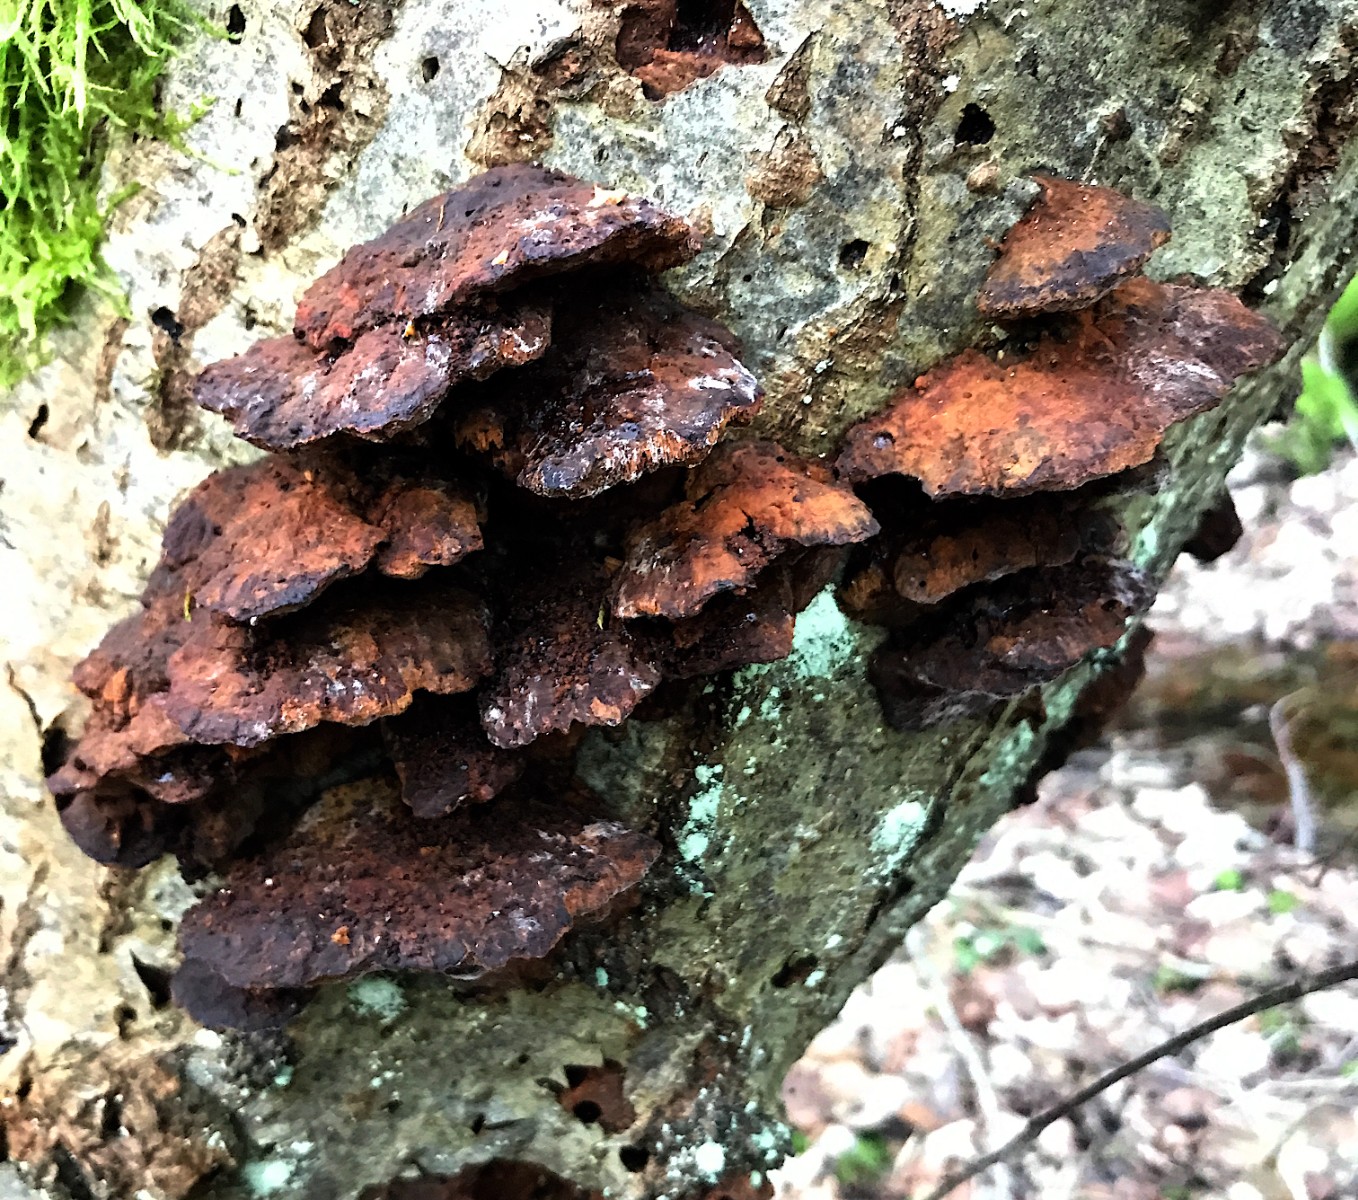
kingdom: Fungi
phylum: Basidiomycota
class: Agaricomycetes
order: Hymenochaetales
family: Hymenochaetaceae
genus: Xanthoporia
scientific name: Xanthoporia radiata
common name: elle-spejlporesvamp
